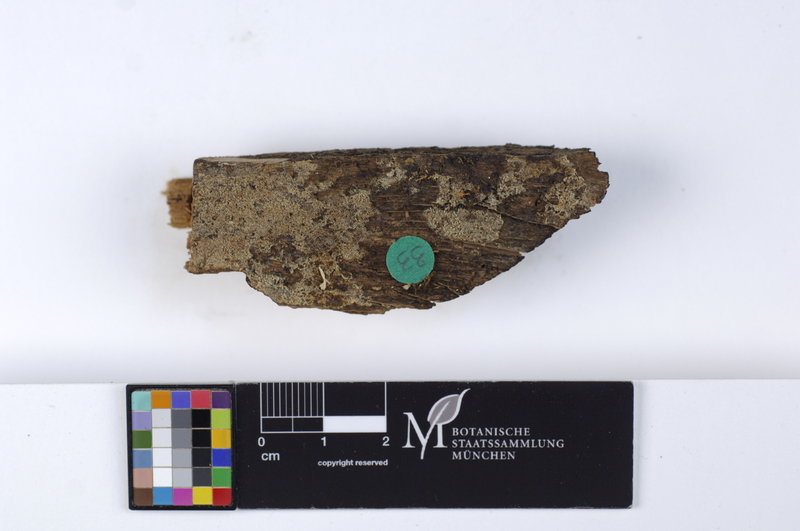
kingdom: Fungi
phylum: Basidiomycota
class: Agaricomycetes
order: Cantharellales
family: Botryobasidiaceae
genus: Botryobasidium
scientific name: Botryobasidium candicans
